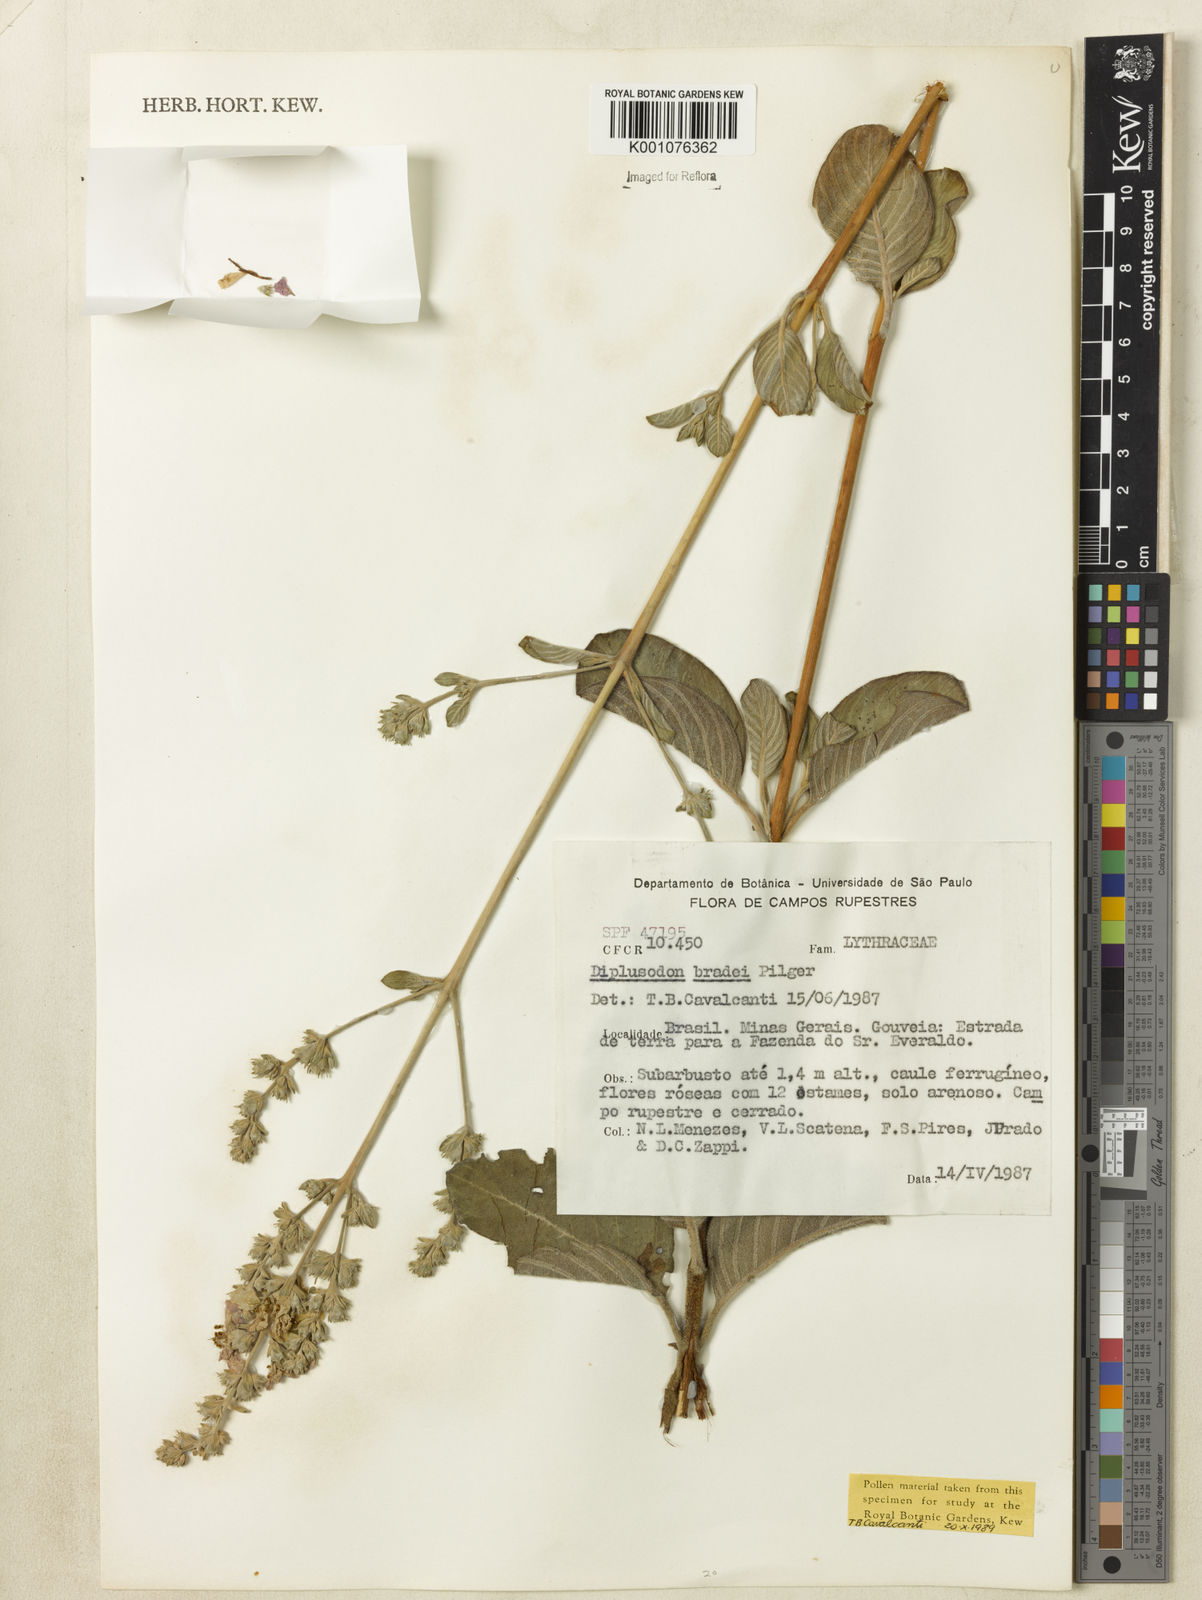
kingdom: Plantae
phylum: Tracheophyta
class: Magnoliopsida
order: Myrtales
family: Lythraceae
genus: Diplusodon
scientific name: Diplusodon bradei
